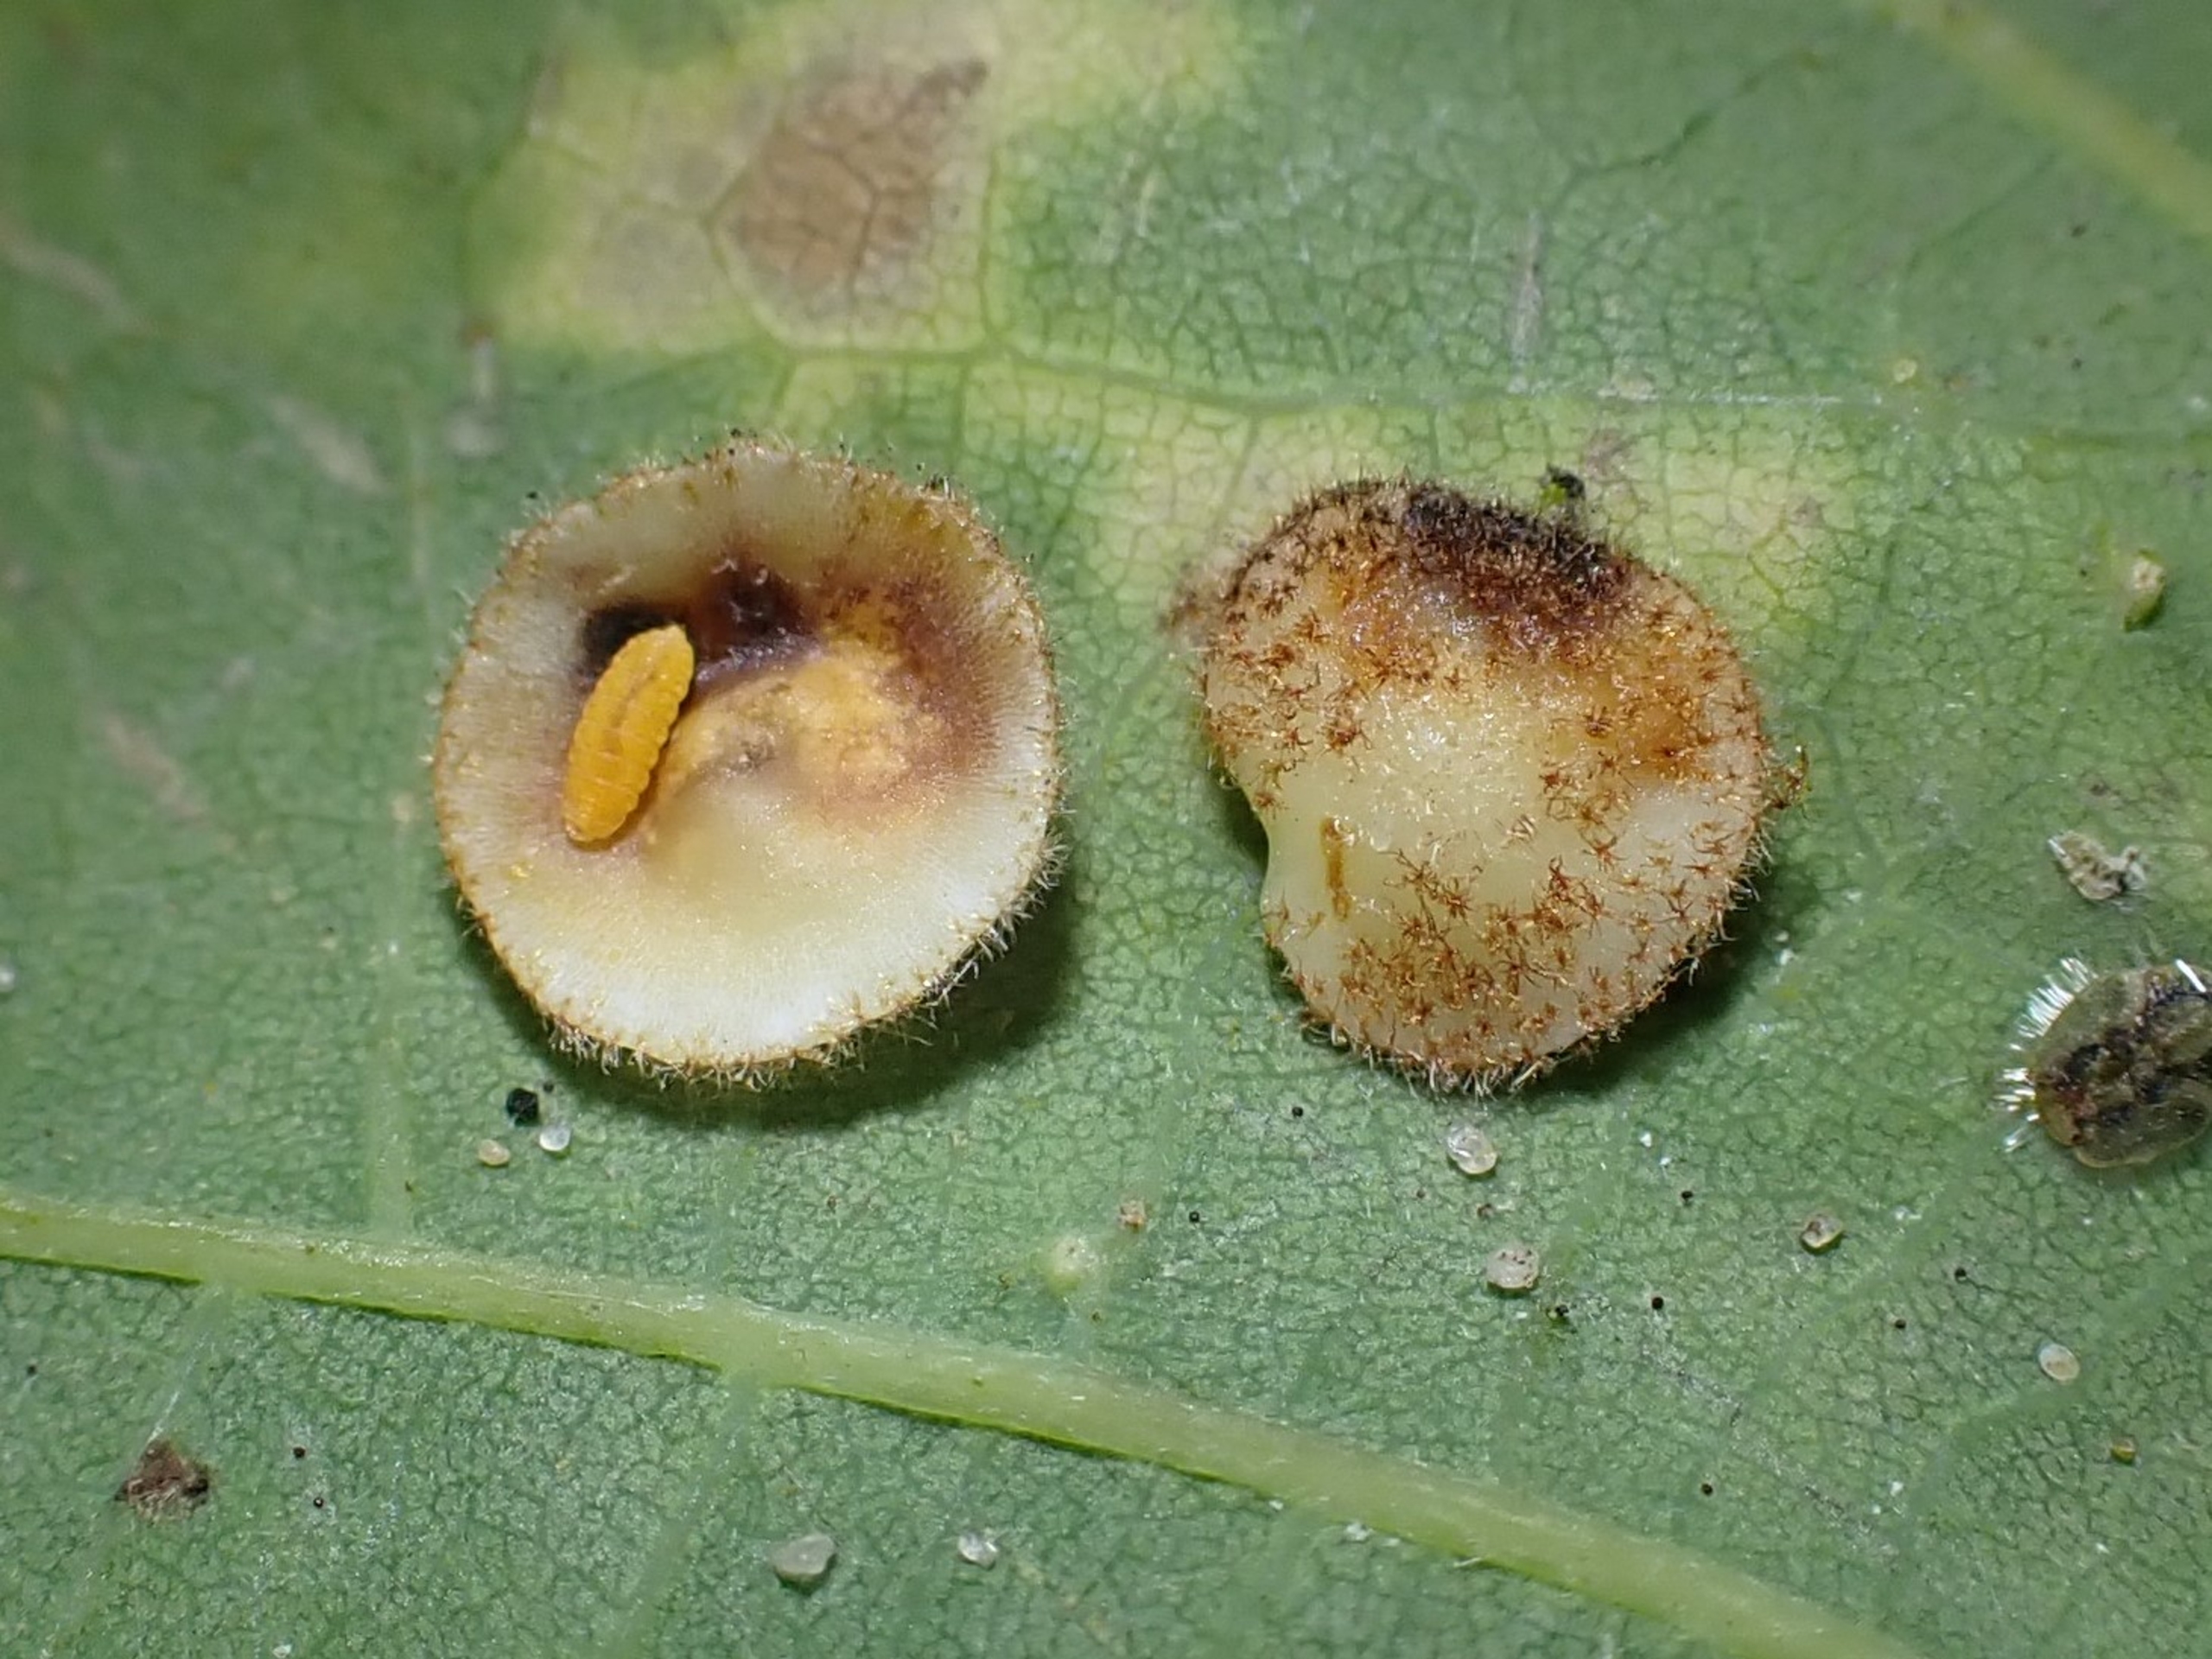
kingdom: Animalia
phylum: Arthropoda
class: Insecta
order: Diptera
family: Cecidomyiidae
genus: Parallelodiplosis
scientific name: Parallelodiplosis galliperda
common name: Underbogalmyg
